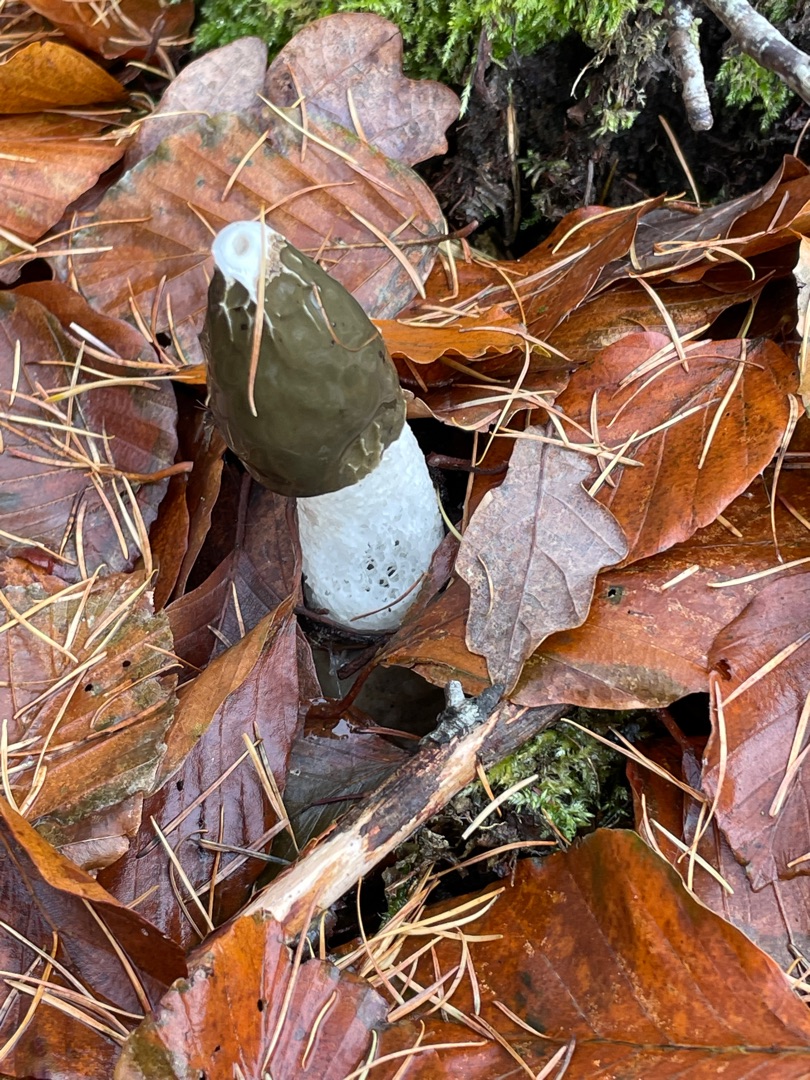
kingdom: Fungi
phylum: Basidiomycota
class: Agaricomycetes
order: Phallales
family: Phallaceae
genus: Phallus
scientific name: Phallus impudicus
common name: Almindelig stinksvamp
